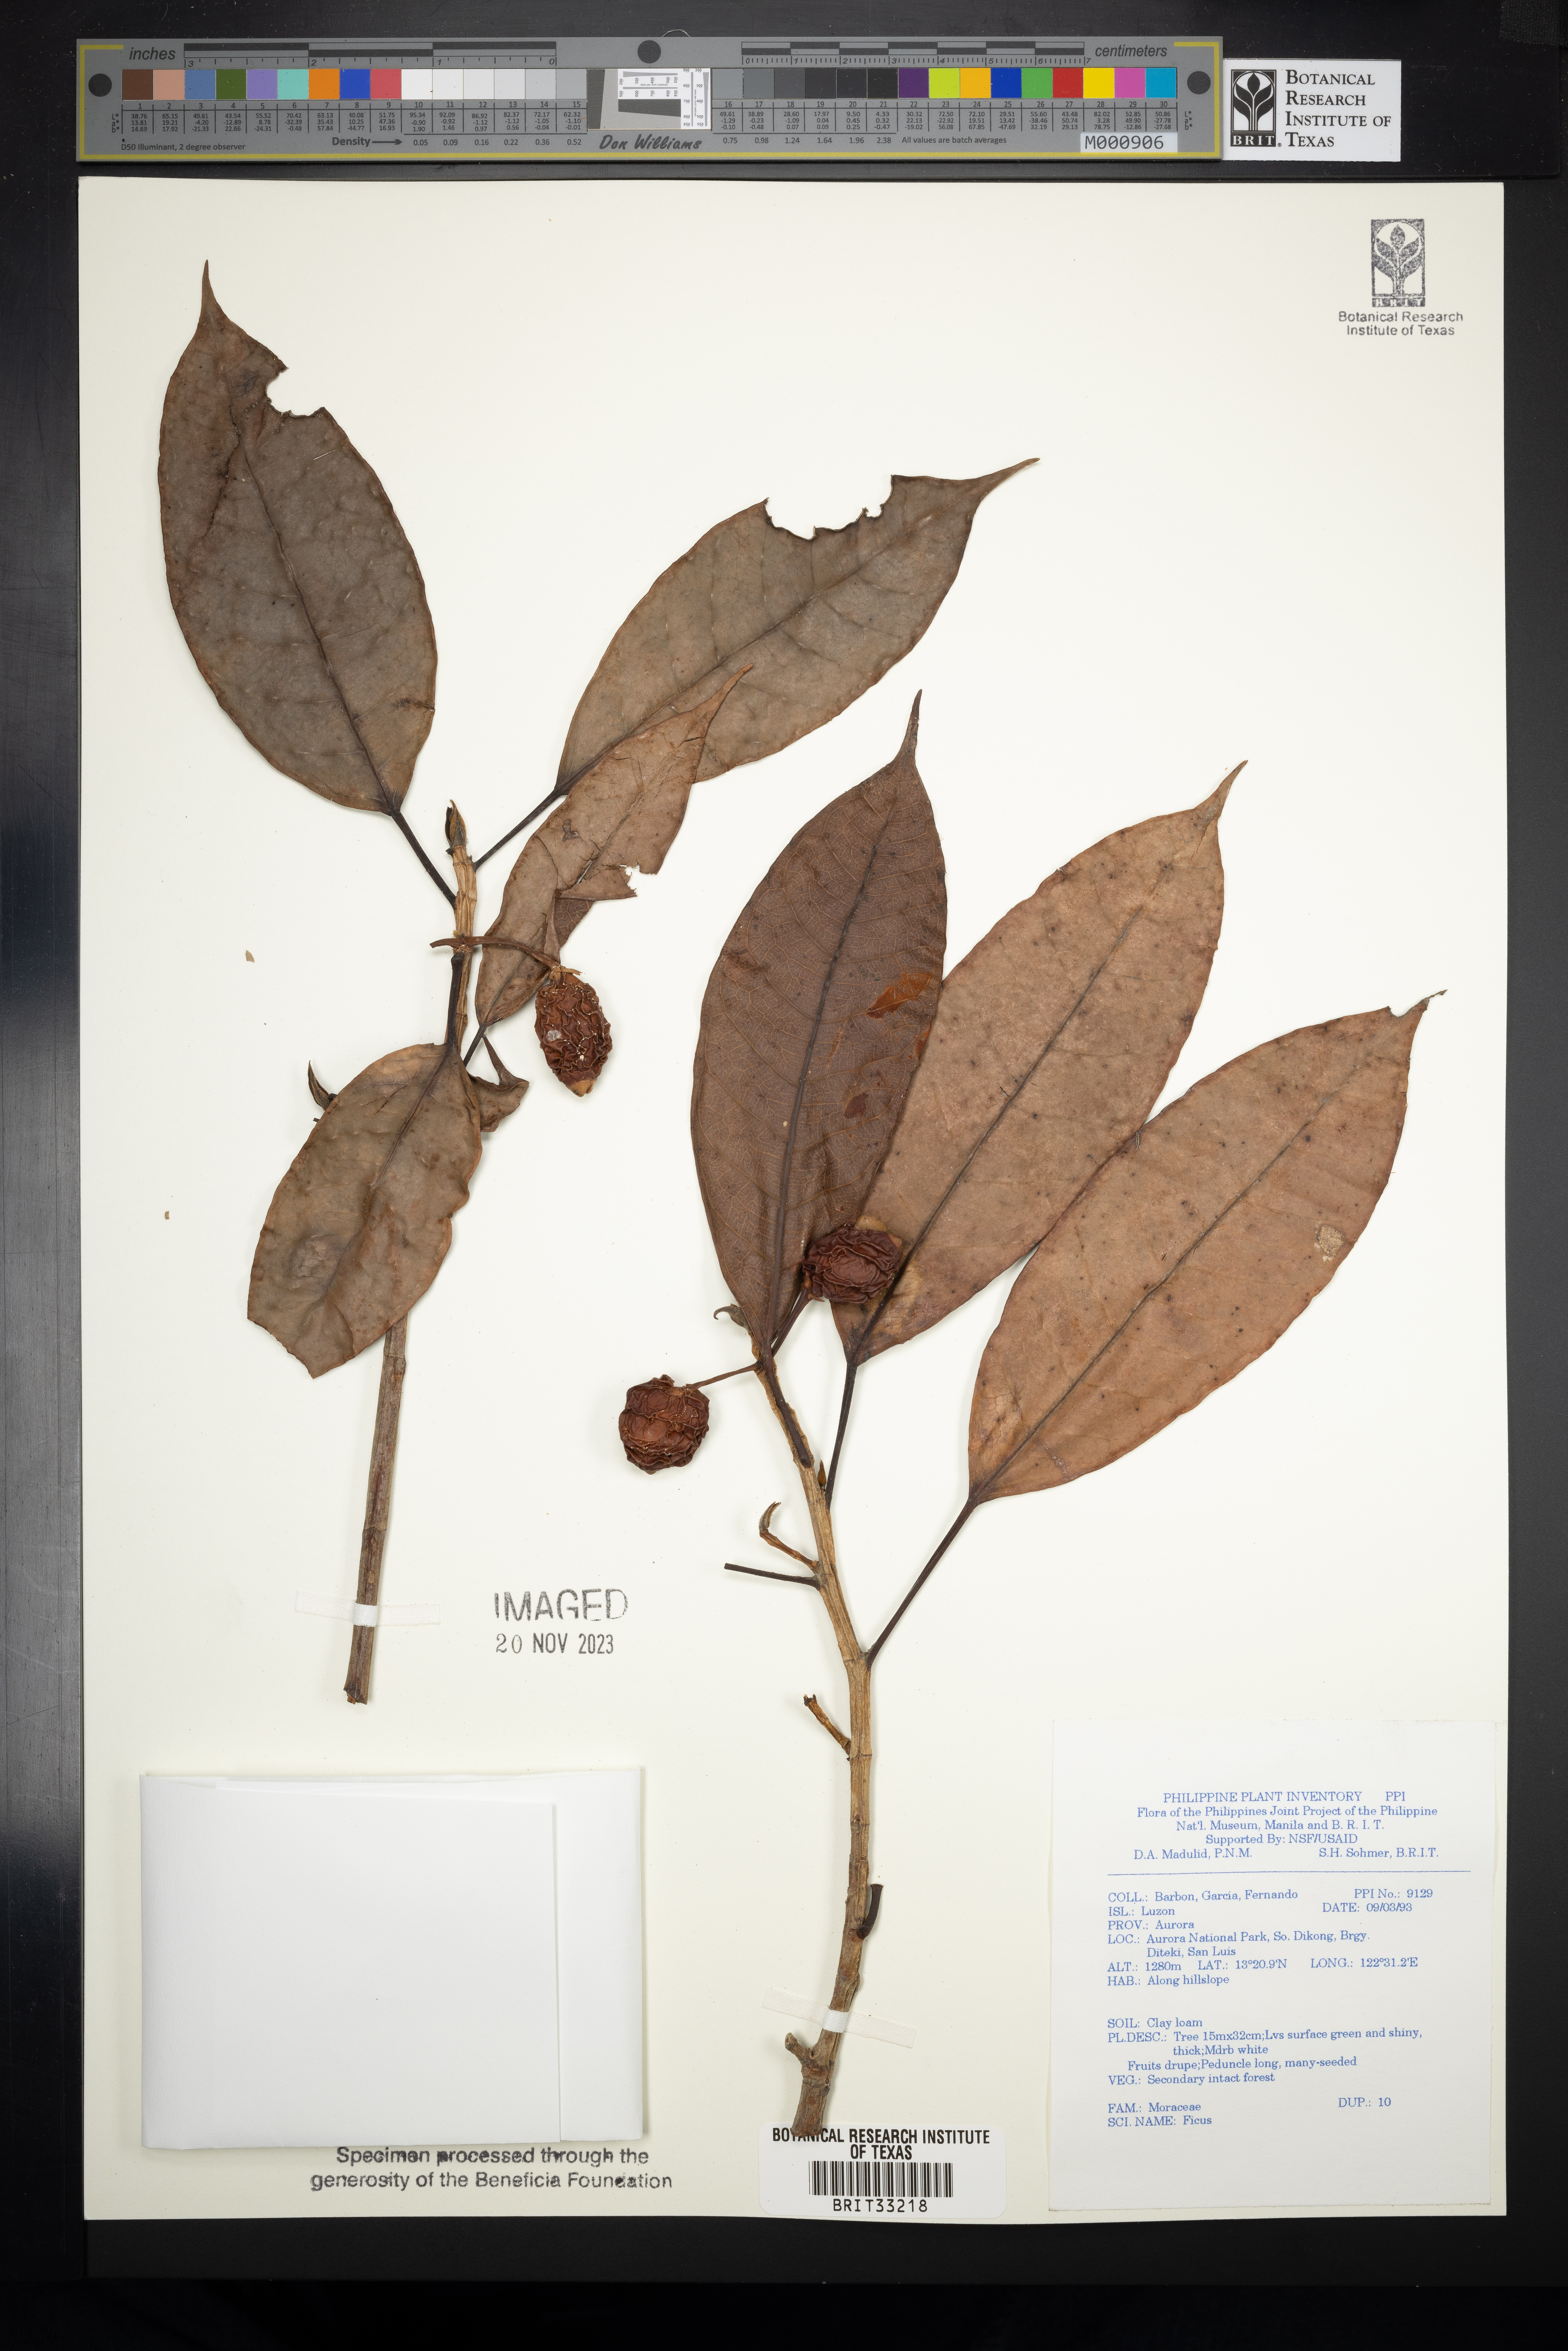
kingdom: Plantae
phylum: Tracheophyta
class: Magnoliopsida
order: Rosales
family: Moraceae
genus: Ficus
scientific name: Ficus
